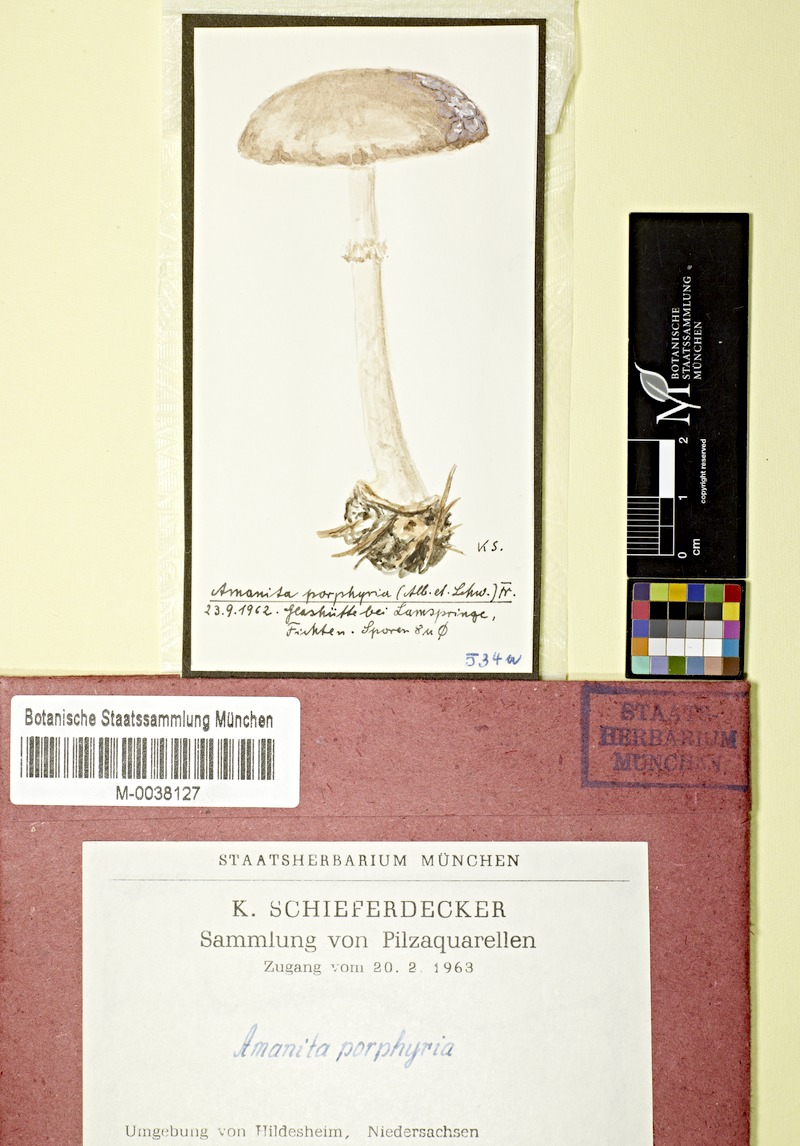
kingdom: Fungi
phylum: Basidiomycota
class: Agaricomycetes
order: Agaricales
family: Amanitaceae
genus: Amanita
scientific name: Amanita porphyria
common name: Grey veiled amanita
